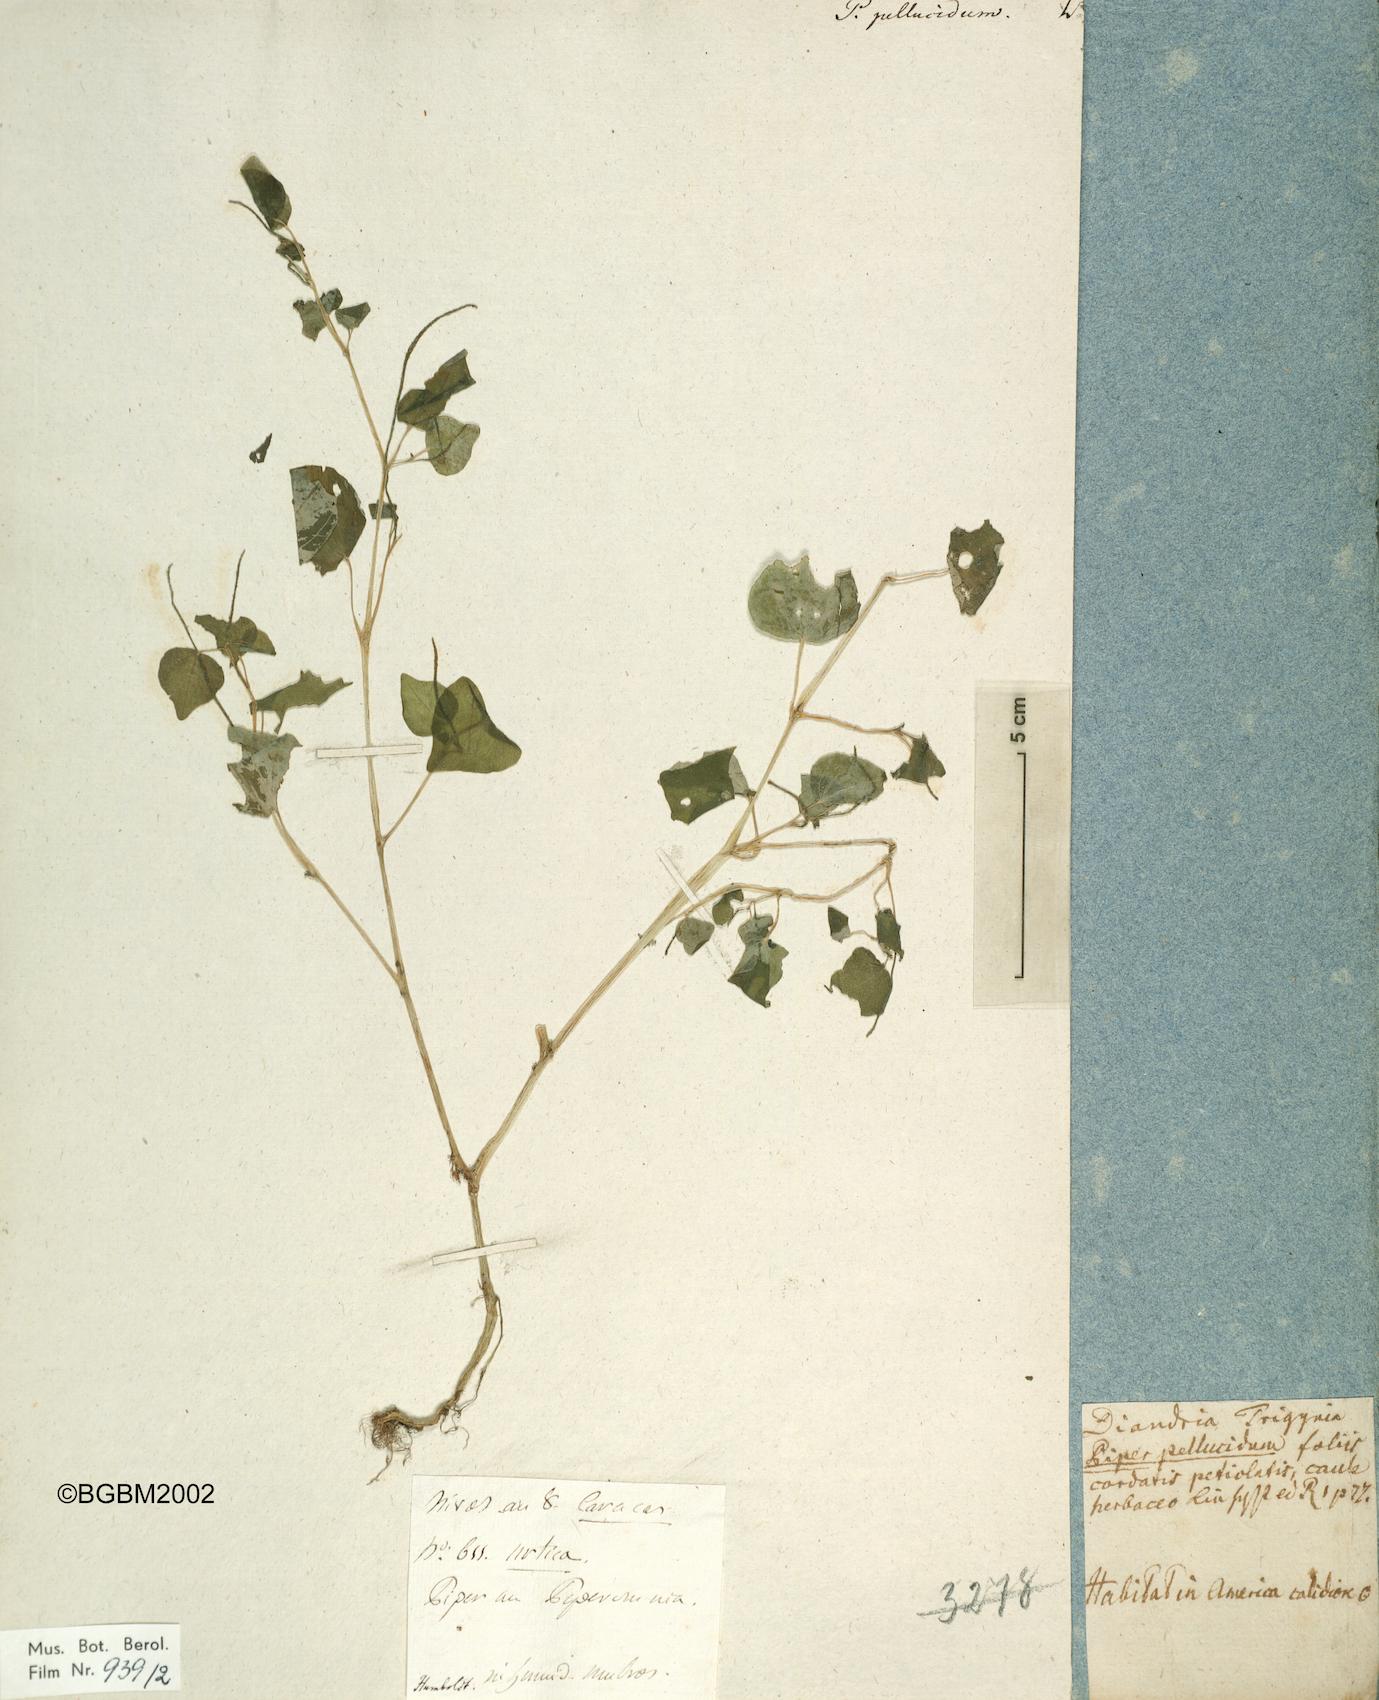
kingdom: Plantae
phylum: Tracheophyta
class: Magnoliopsida
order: Piperales
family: Piperaceae
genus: Peperomia
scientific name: Peperomia pellucida
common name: Man to man
